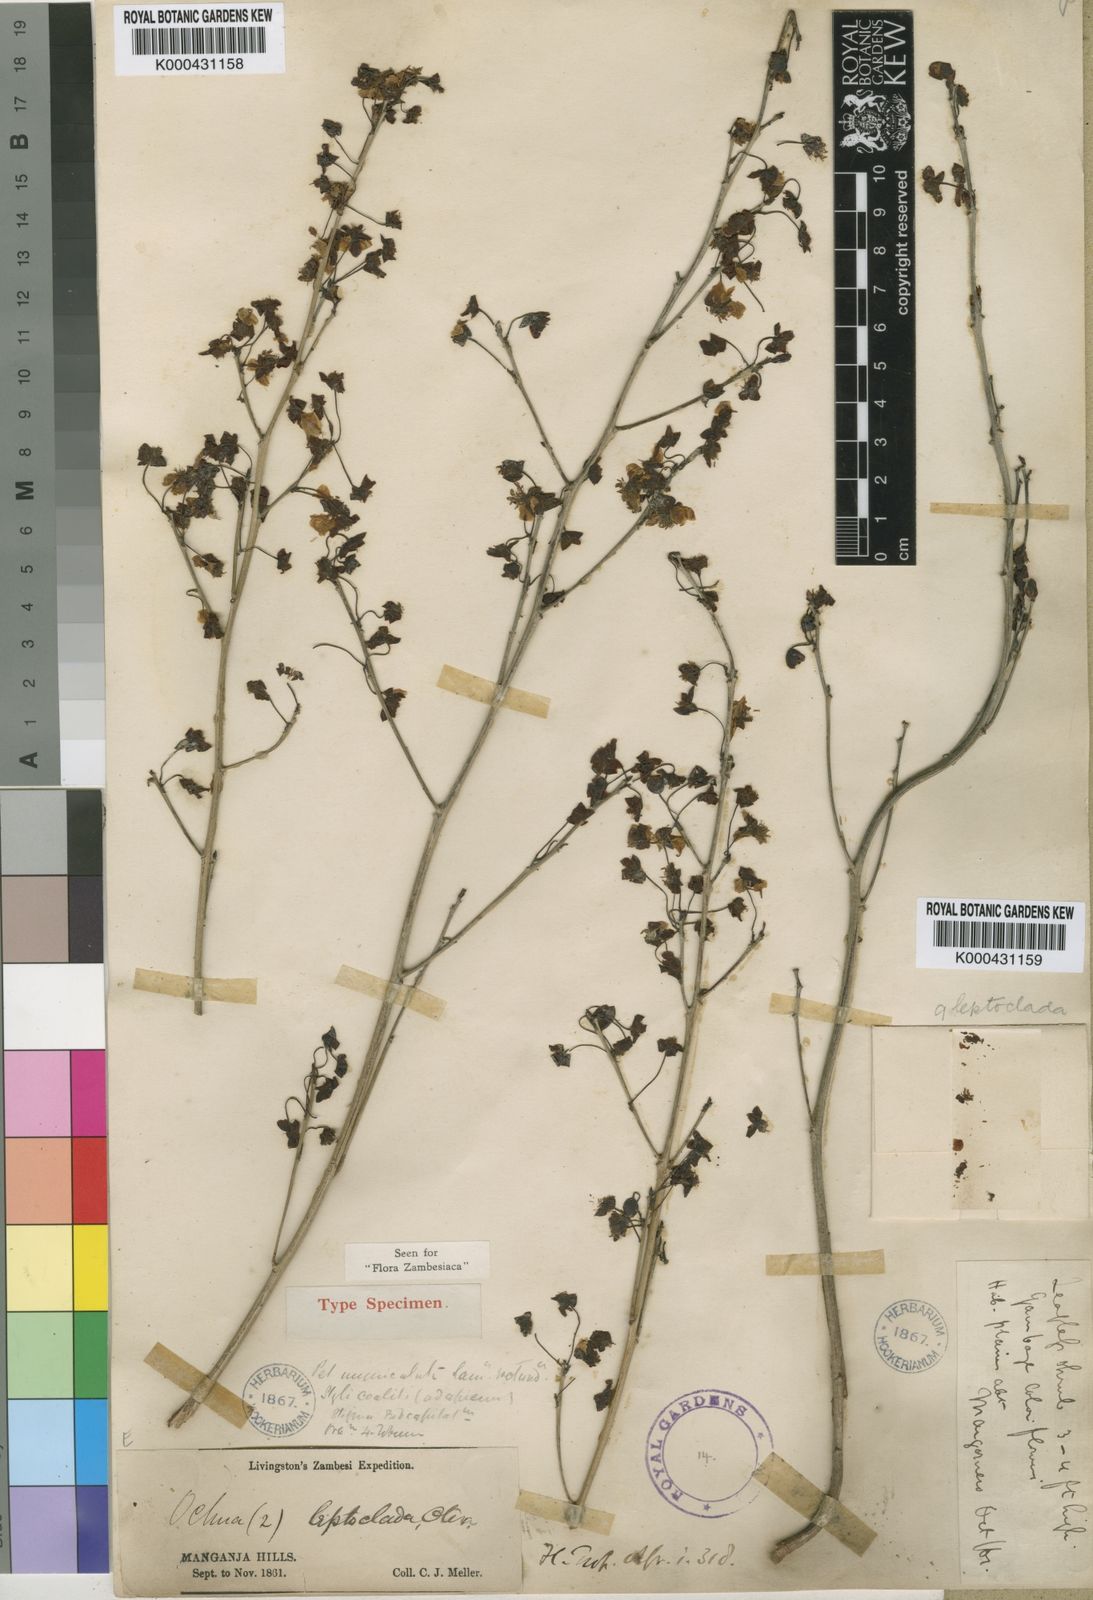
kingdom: Plantae
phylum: Tracheophyta
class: Magnoliopsida
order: Malpighiales
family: Ochnaceae
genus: Ochna
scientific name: Ochna leptoclada
